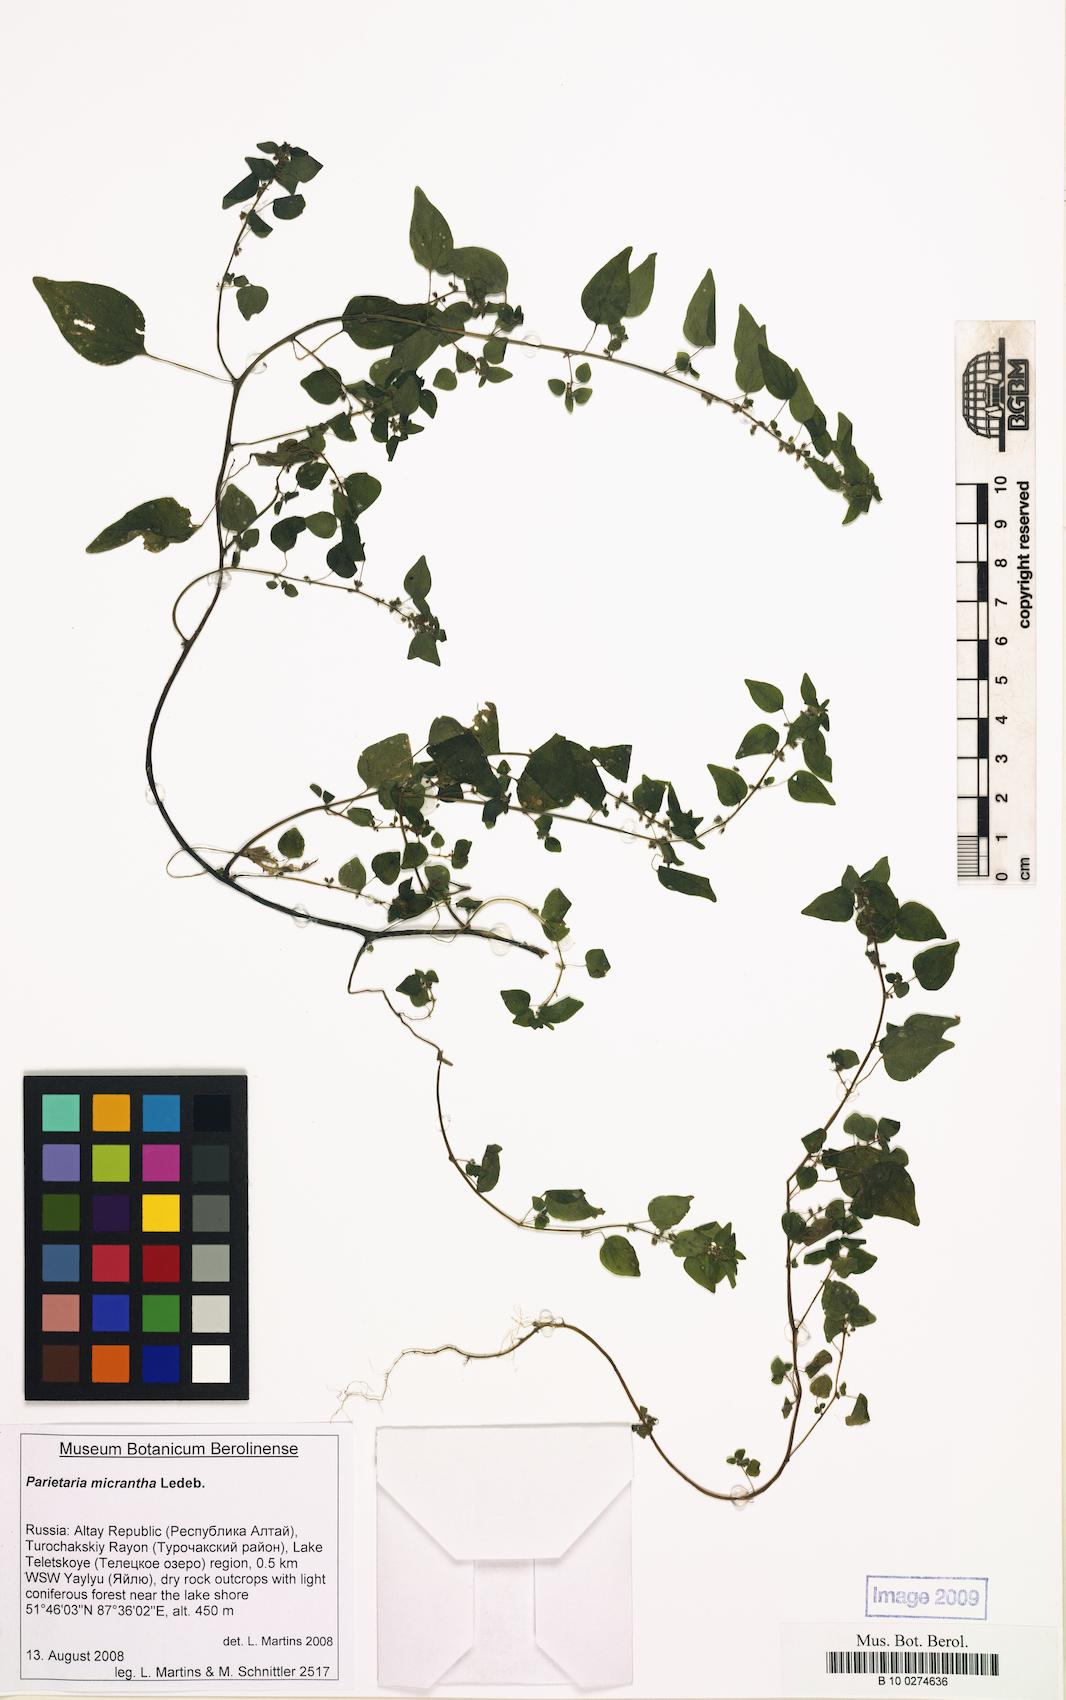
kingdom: Plantae
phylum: Tracheophyta
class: Magnoliopsida
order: Rosales
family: Urticaceae
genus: Parietaria
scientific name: Parietaria micrantha
